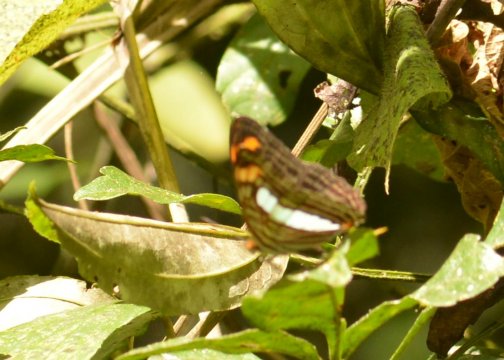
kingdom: Animalia
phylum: Arthropoda
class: Insecta
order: Lepidoptera
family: Nymphalidae
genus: Limenitis
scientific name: Limenitis serpa
